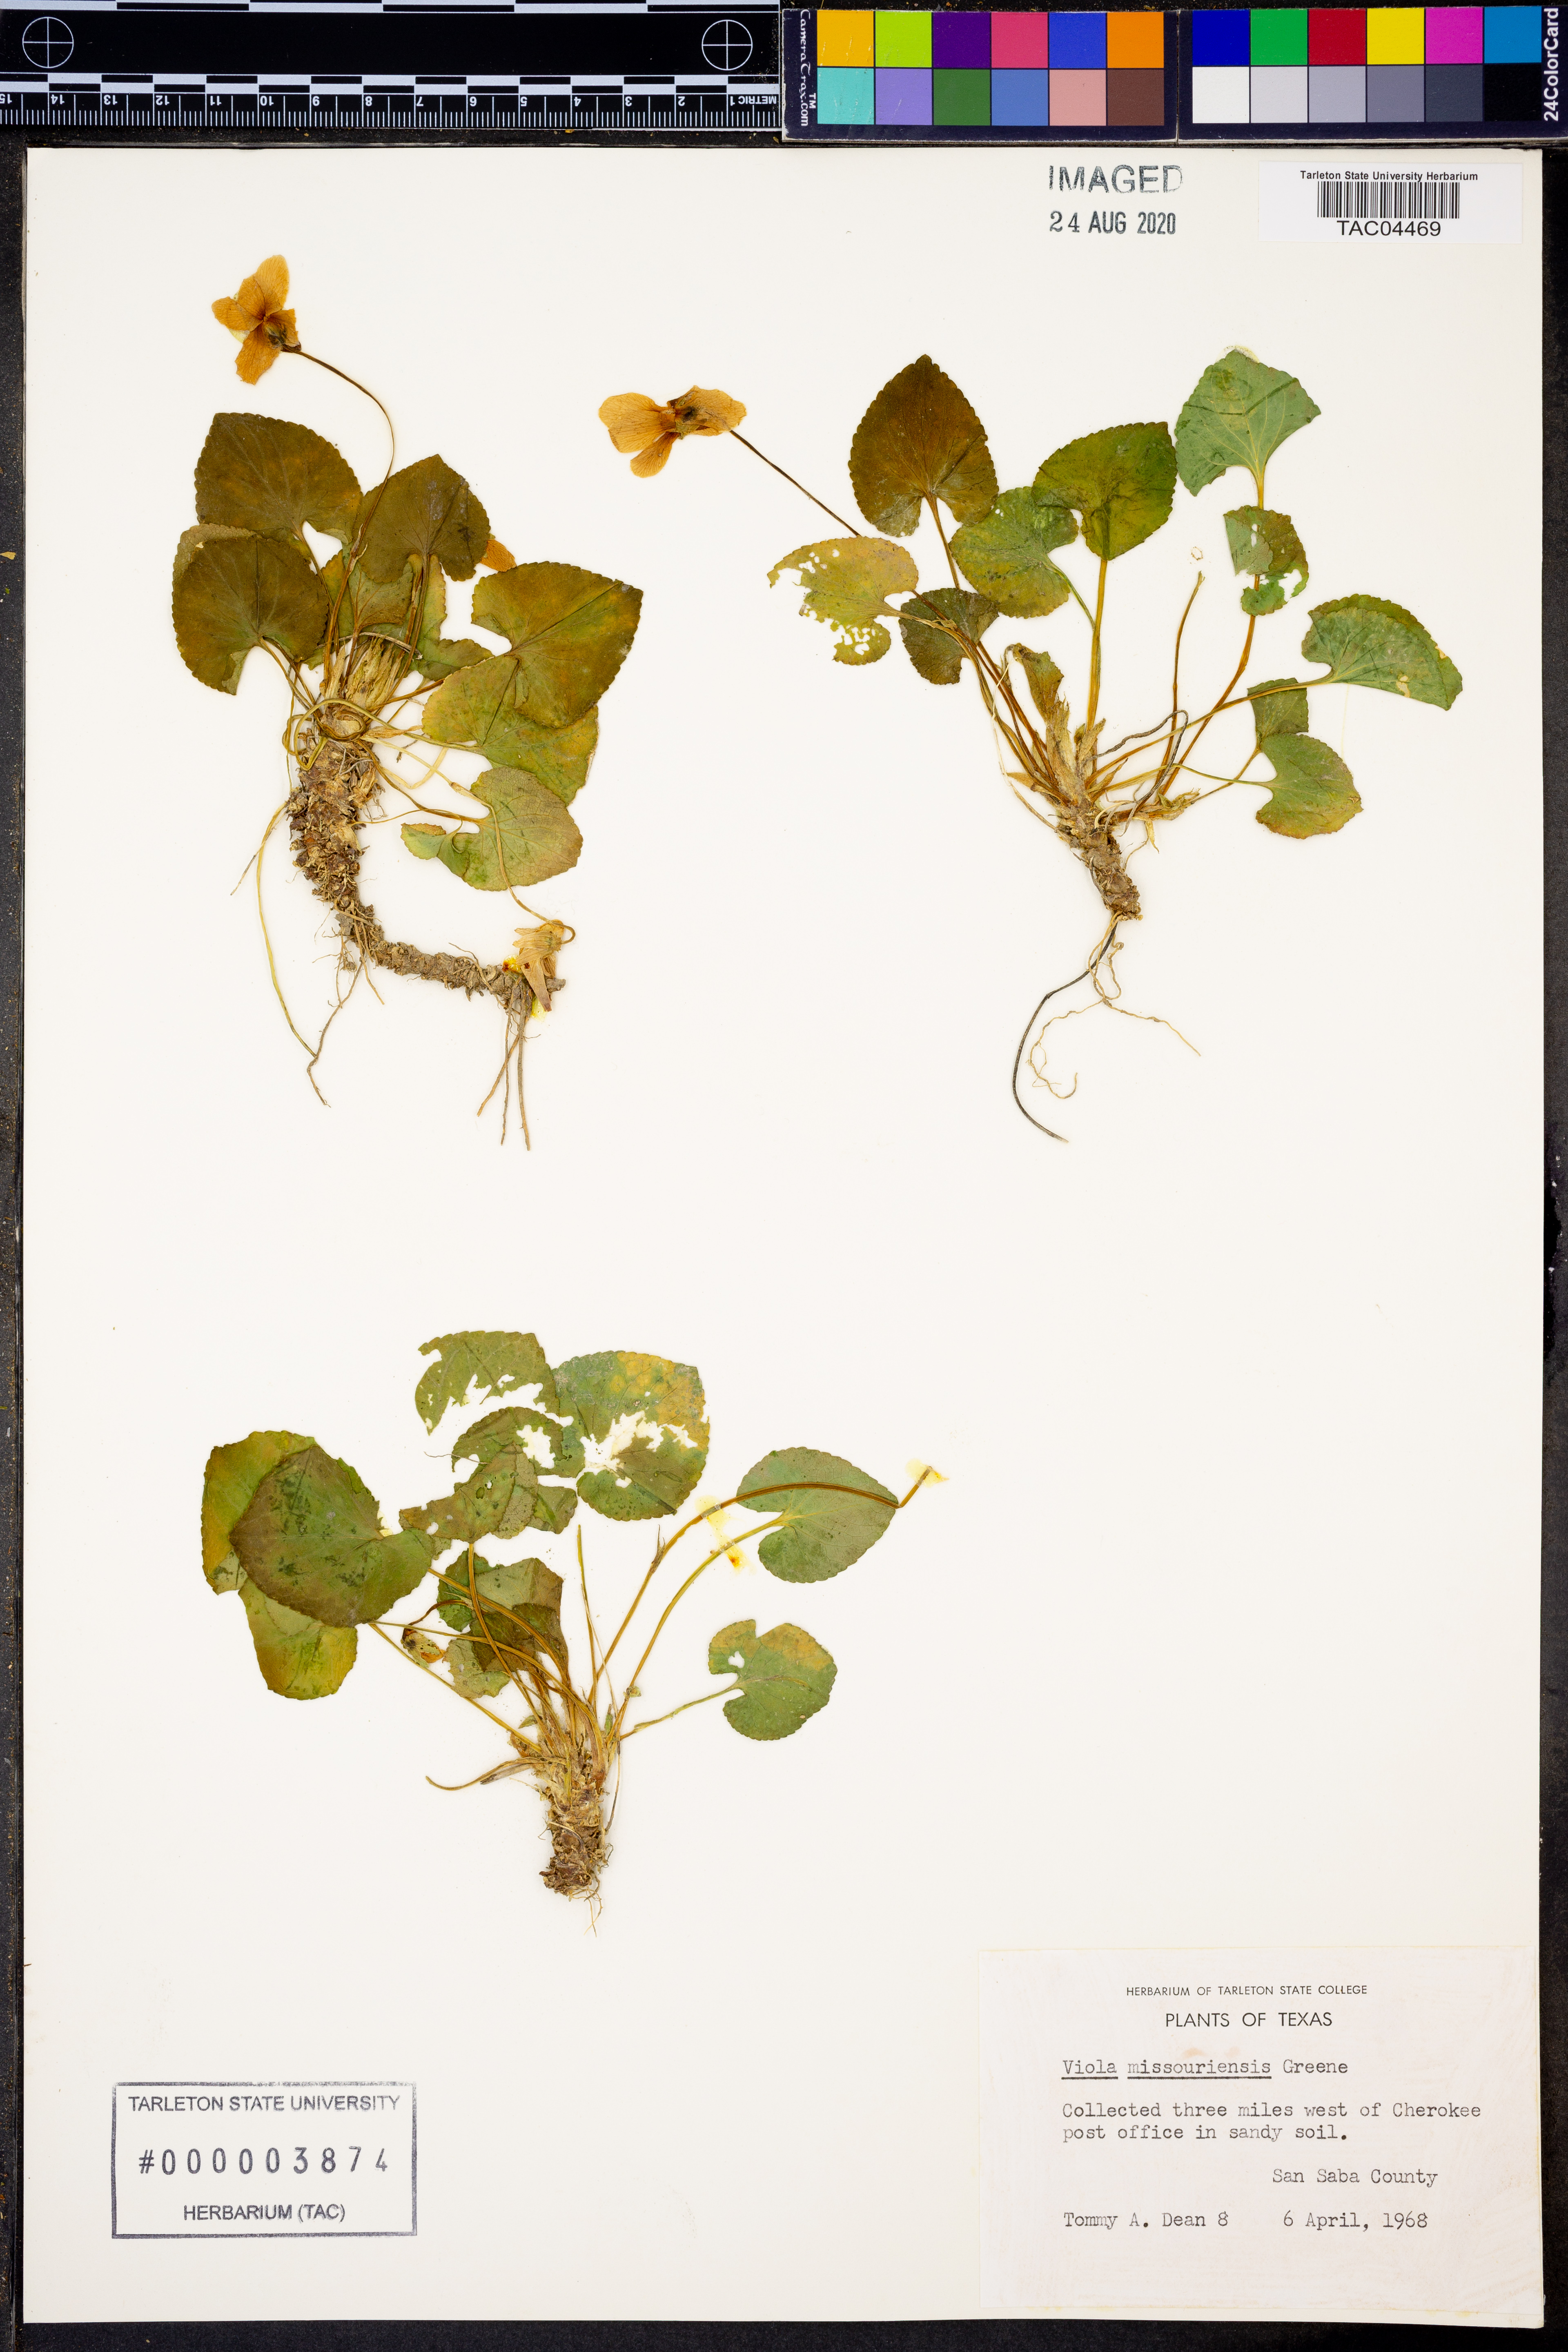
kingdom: Plantae
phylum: Tracheophyta
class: Magnoliopsida
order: Malpighiales
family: Violaceae
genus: Viola
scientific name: Viola missouriensis
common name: Missouri violet
